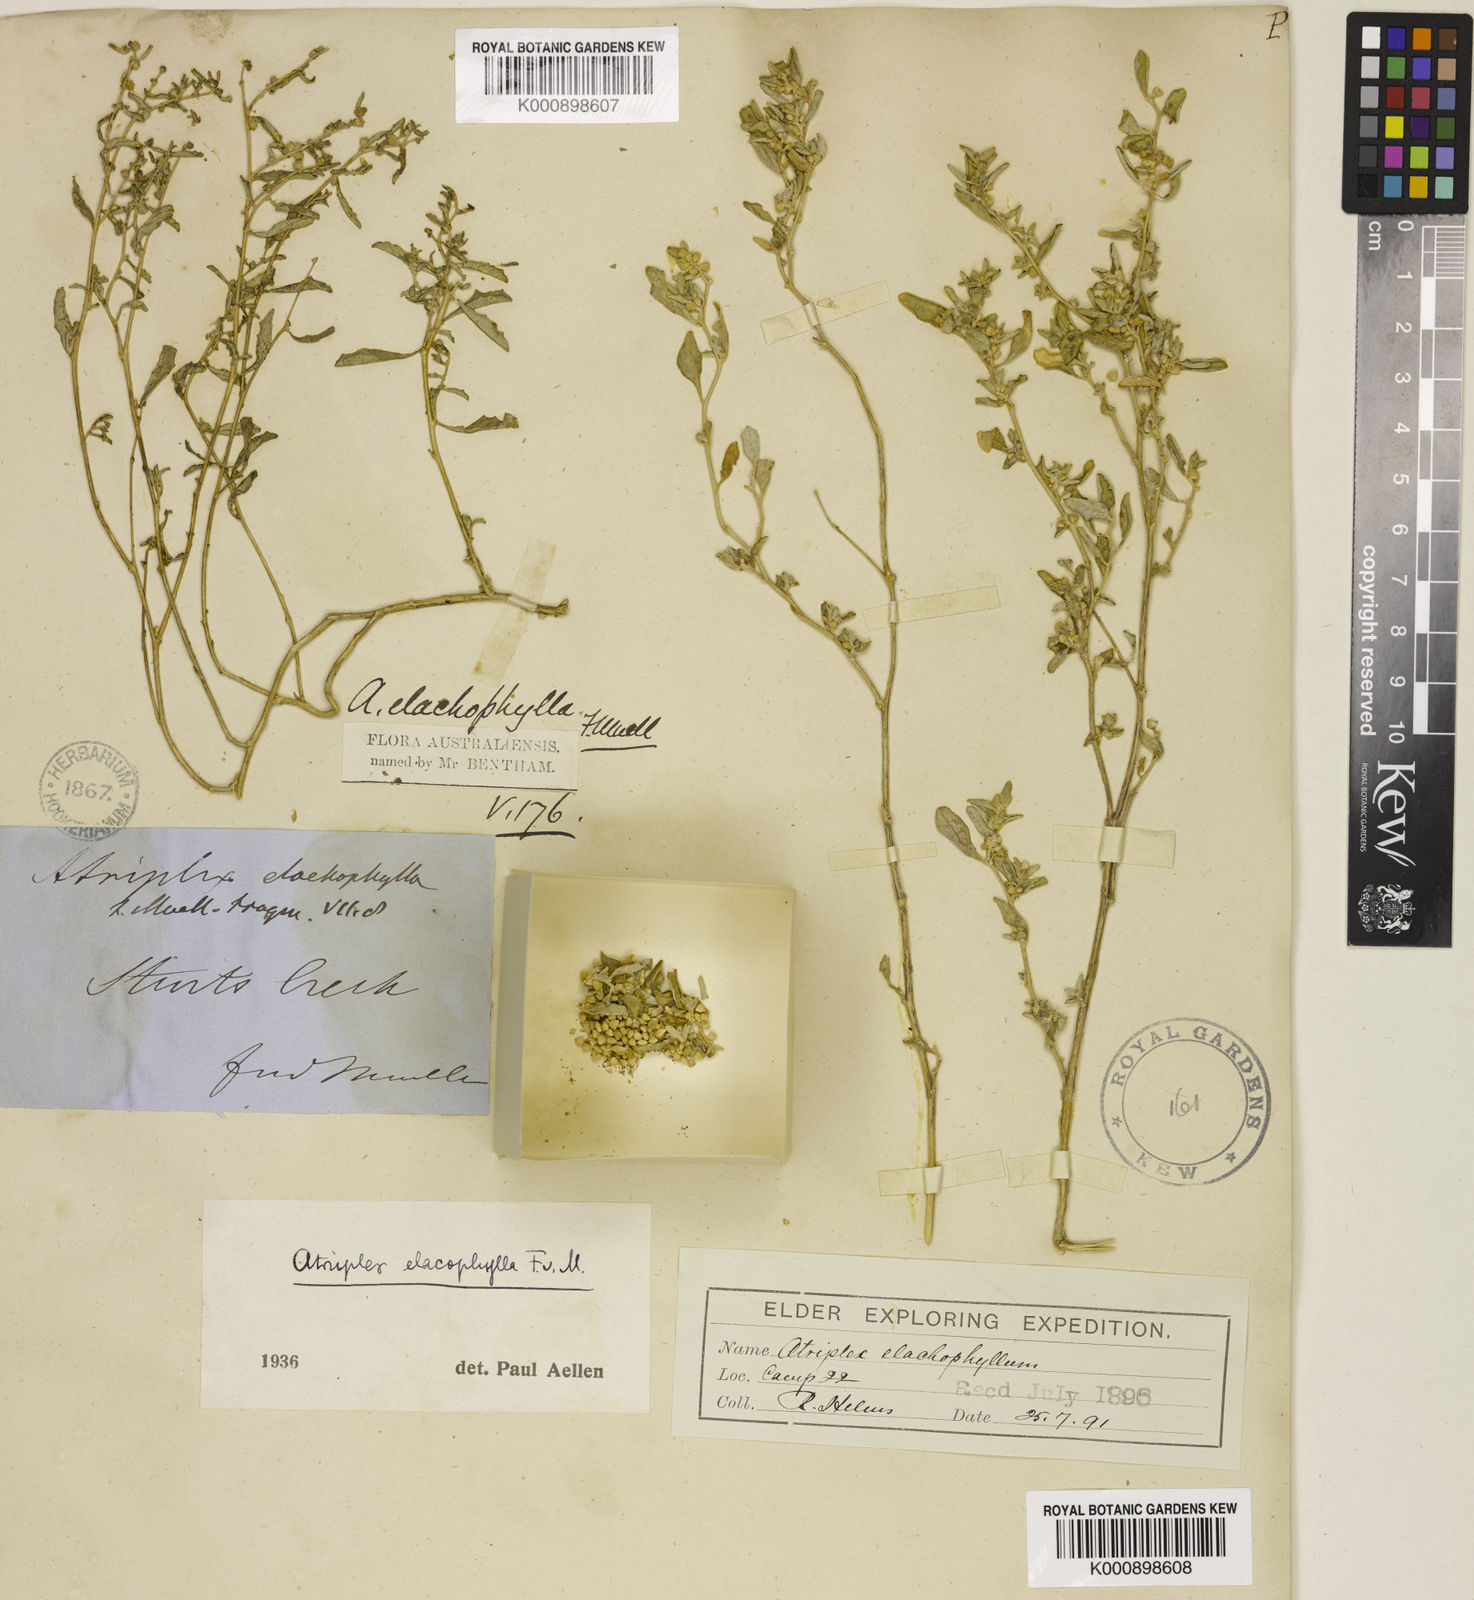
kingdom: Plantae
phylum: Tracheophyta
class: Magnoliopsida
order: Caryophyllales
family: Amaranthaceae
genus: Atriplex
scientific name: Atriplex elachophylla
